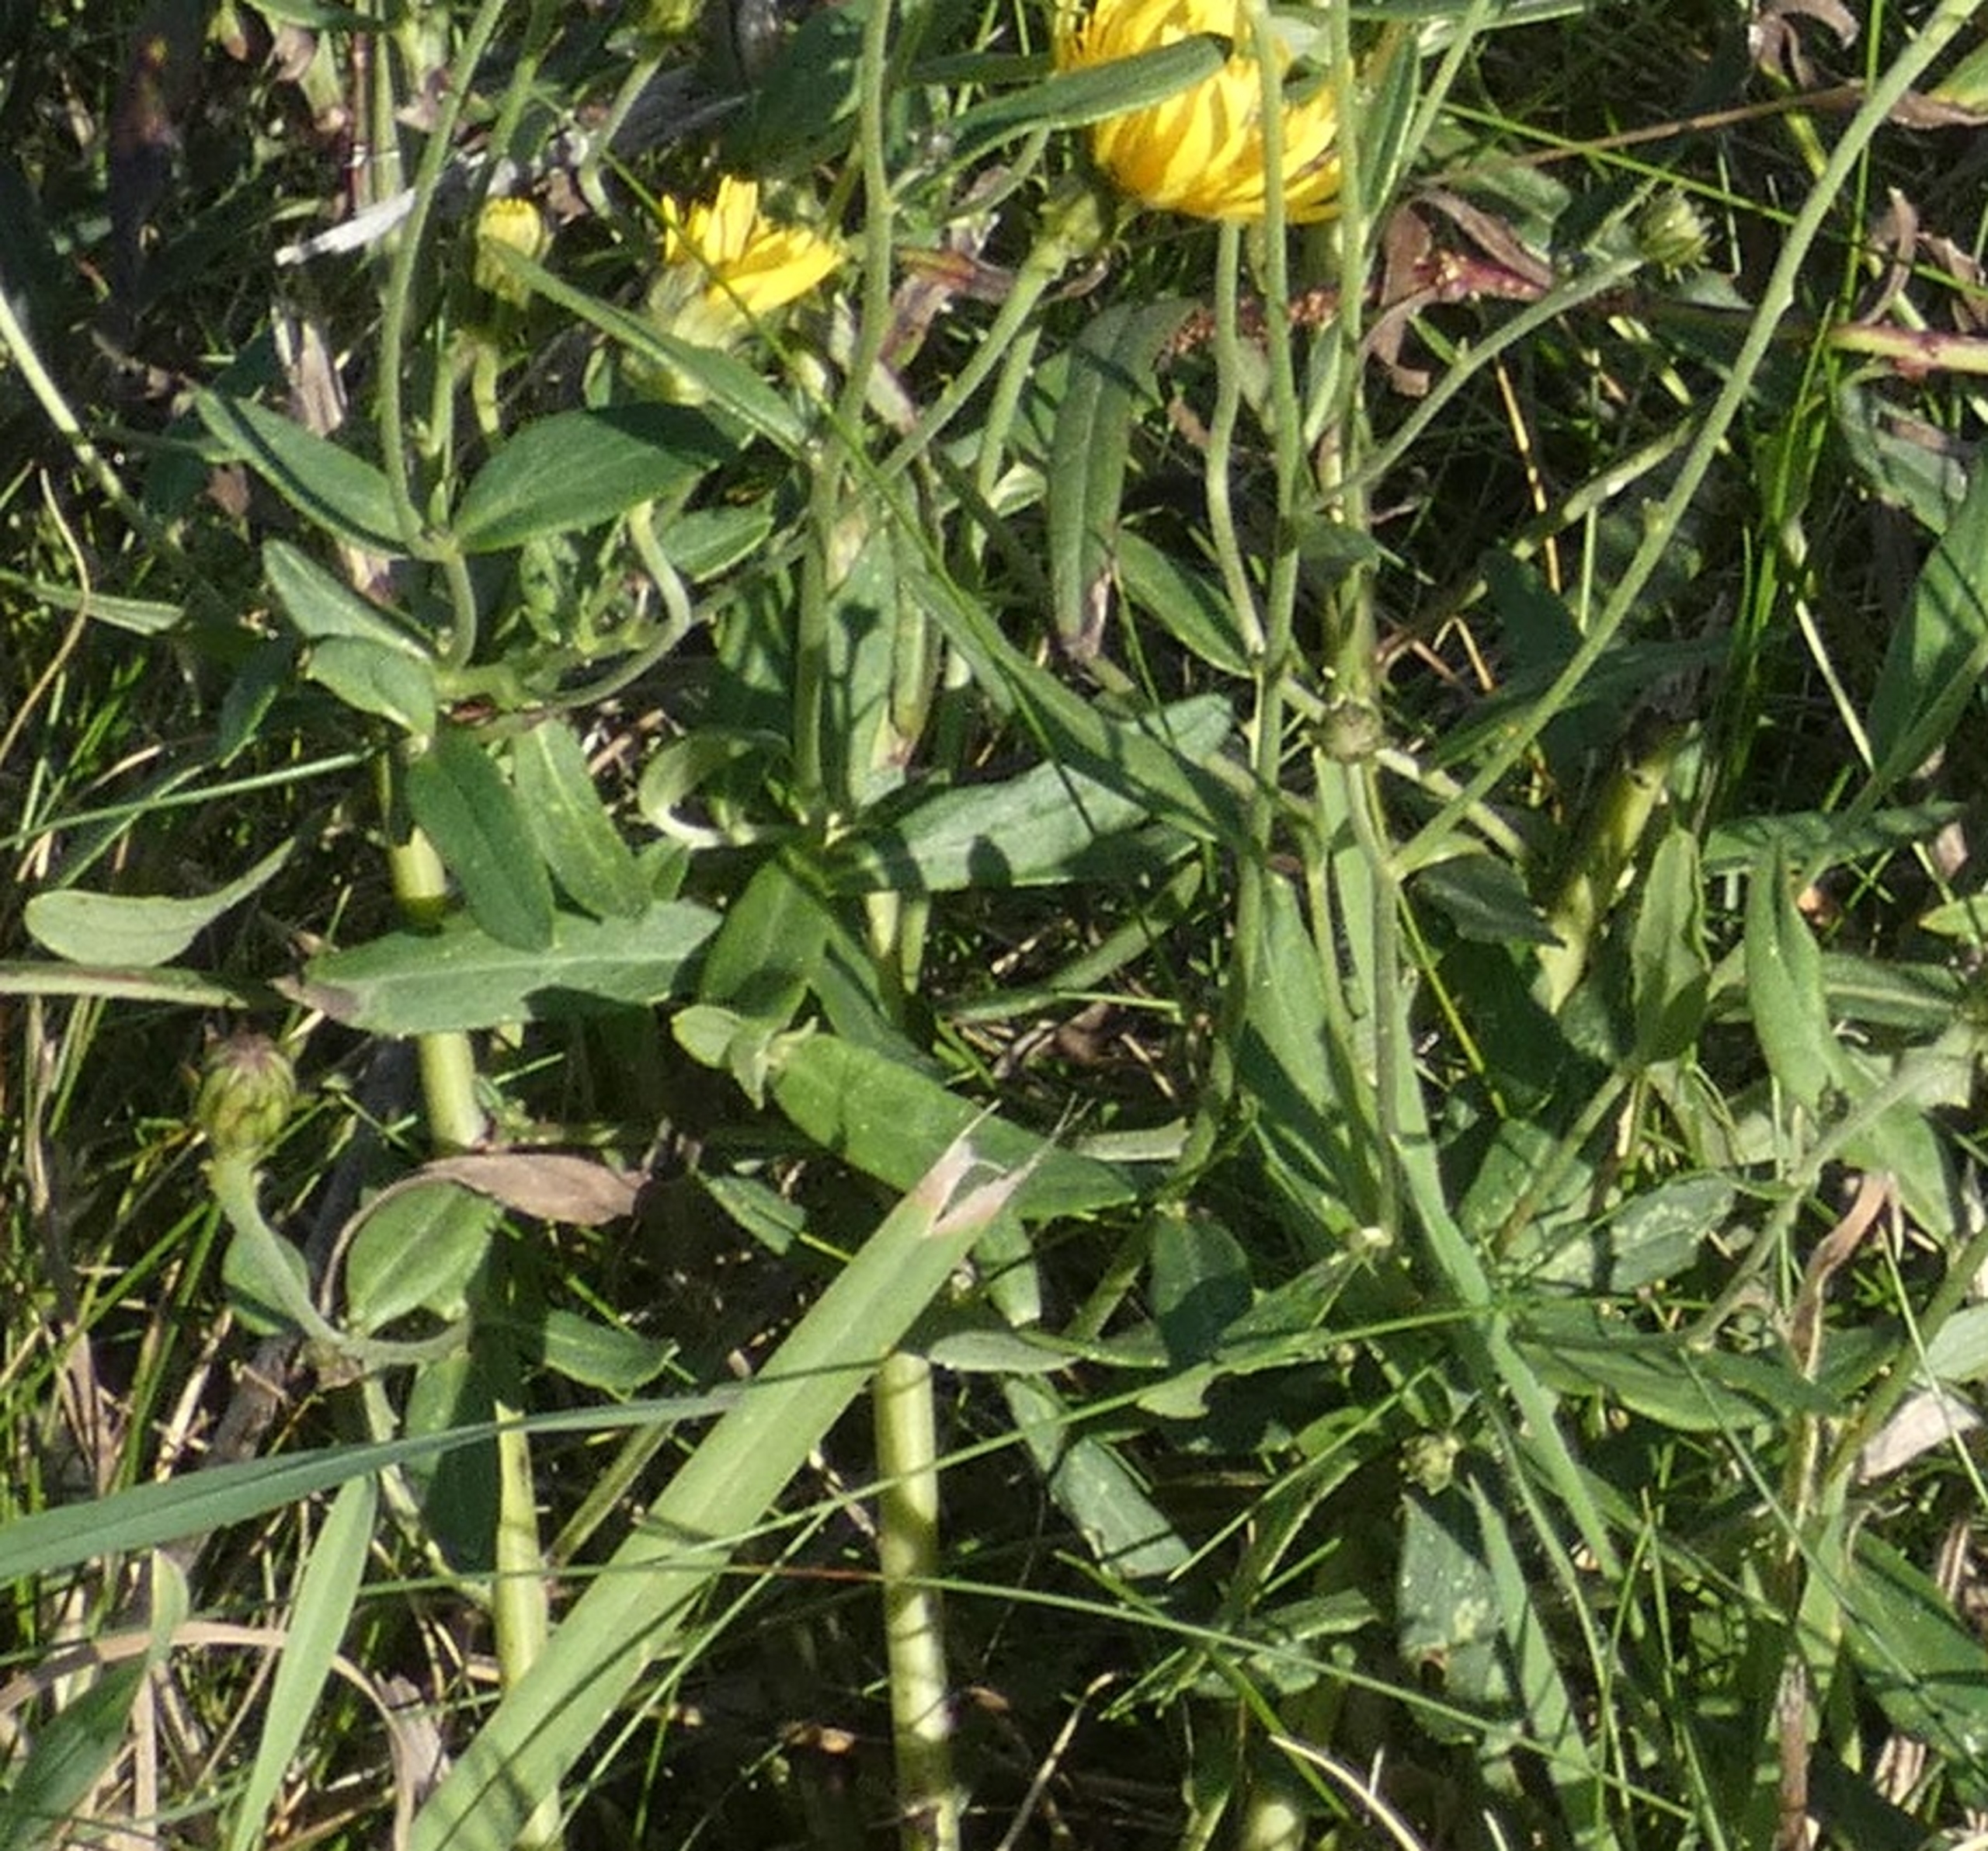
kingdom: Plantae
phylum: Tracheophyta
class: Magnoliopsida
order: Asterales
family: Asteraceae
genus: Hieracium
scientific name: Hieracium umbellatum
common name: Smalbladet høgeurt
